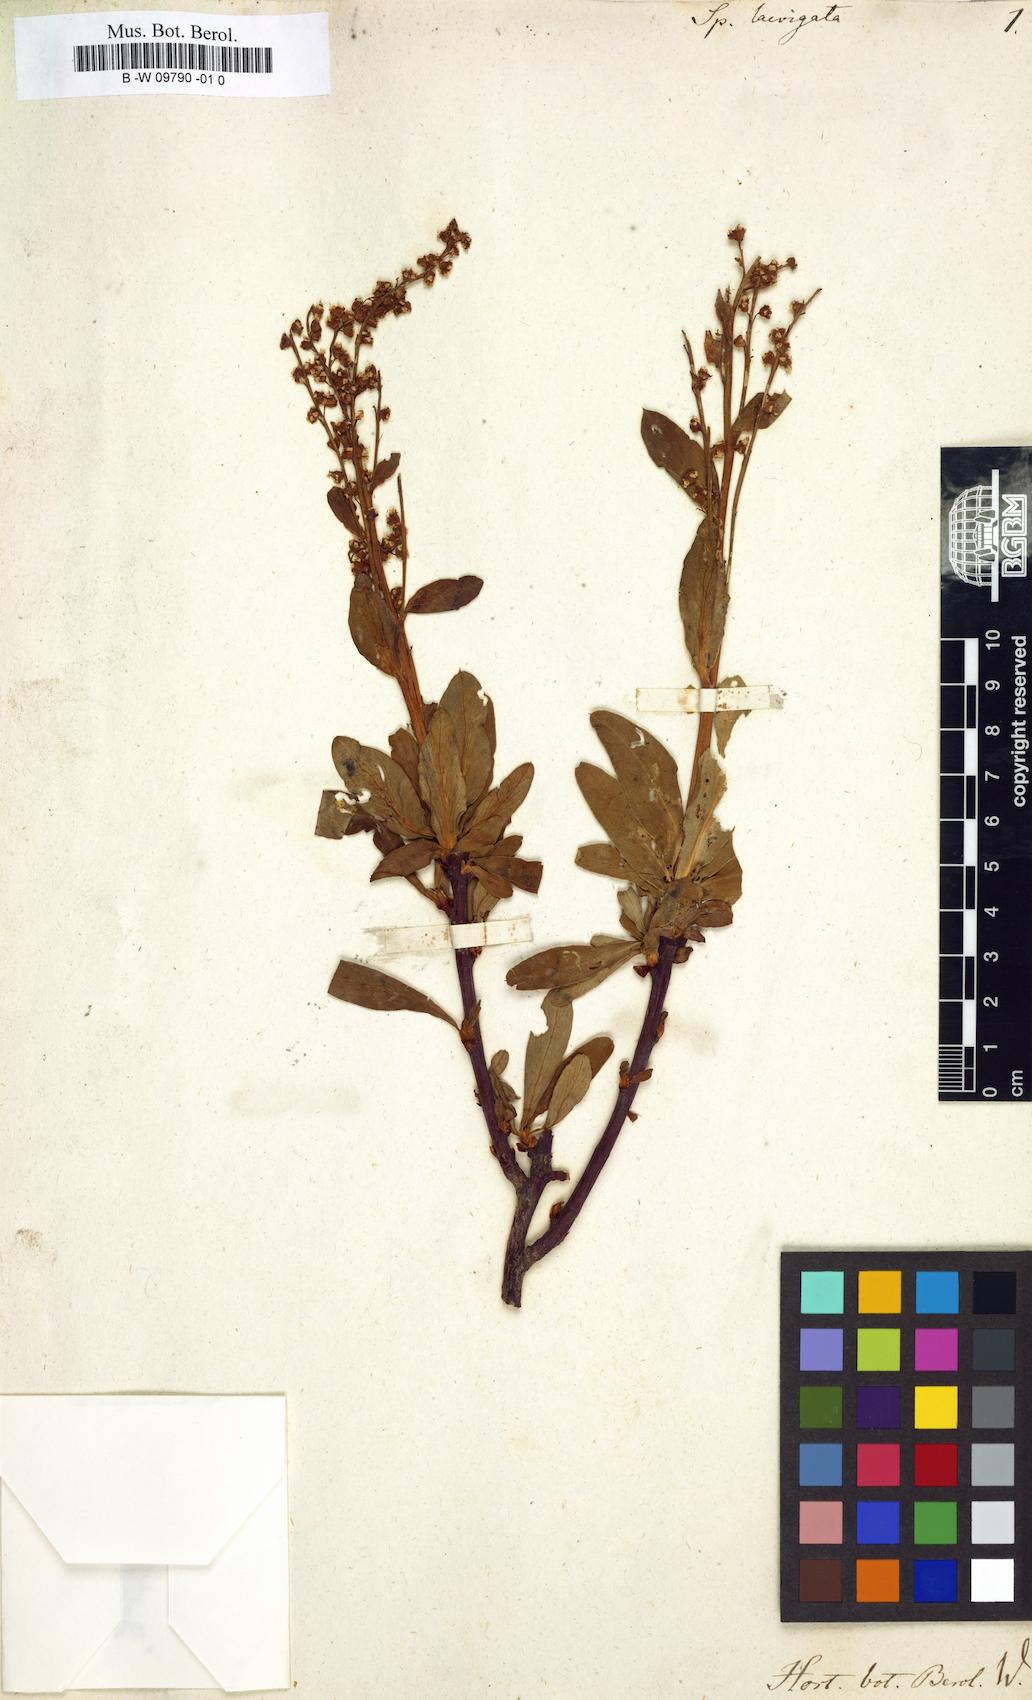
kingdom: Plantae
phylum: Tracheophyta
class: Magnoliopsida
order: Rosales
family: Rosaceae
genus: Sibiraea
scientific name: Sibiraea laevigata
